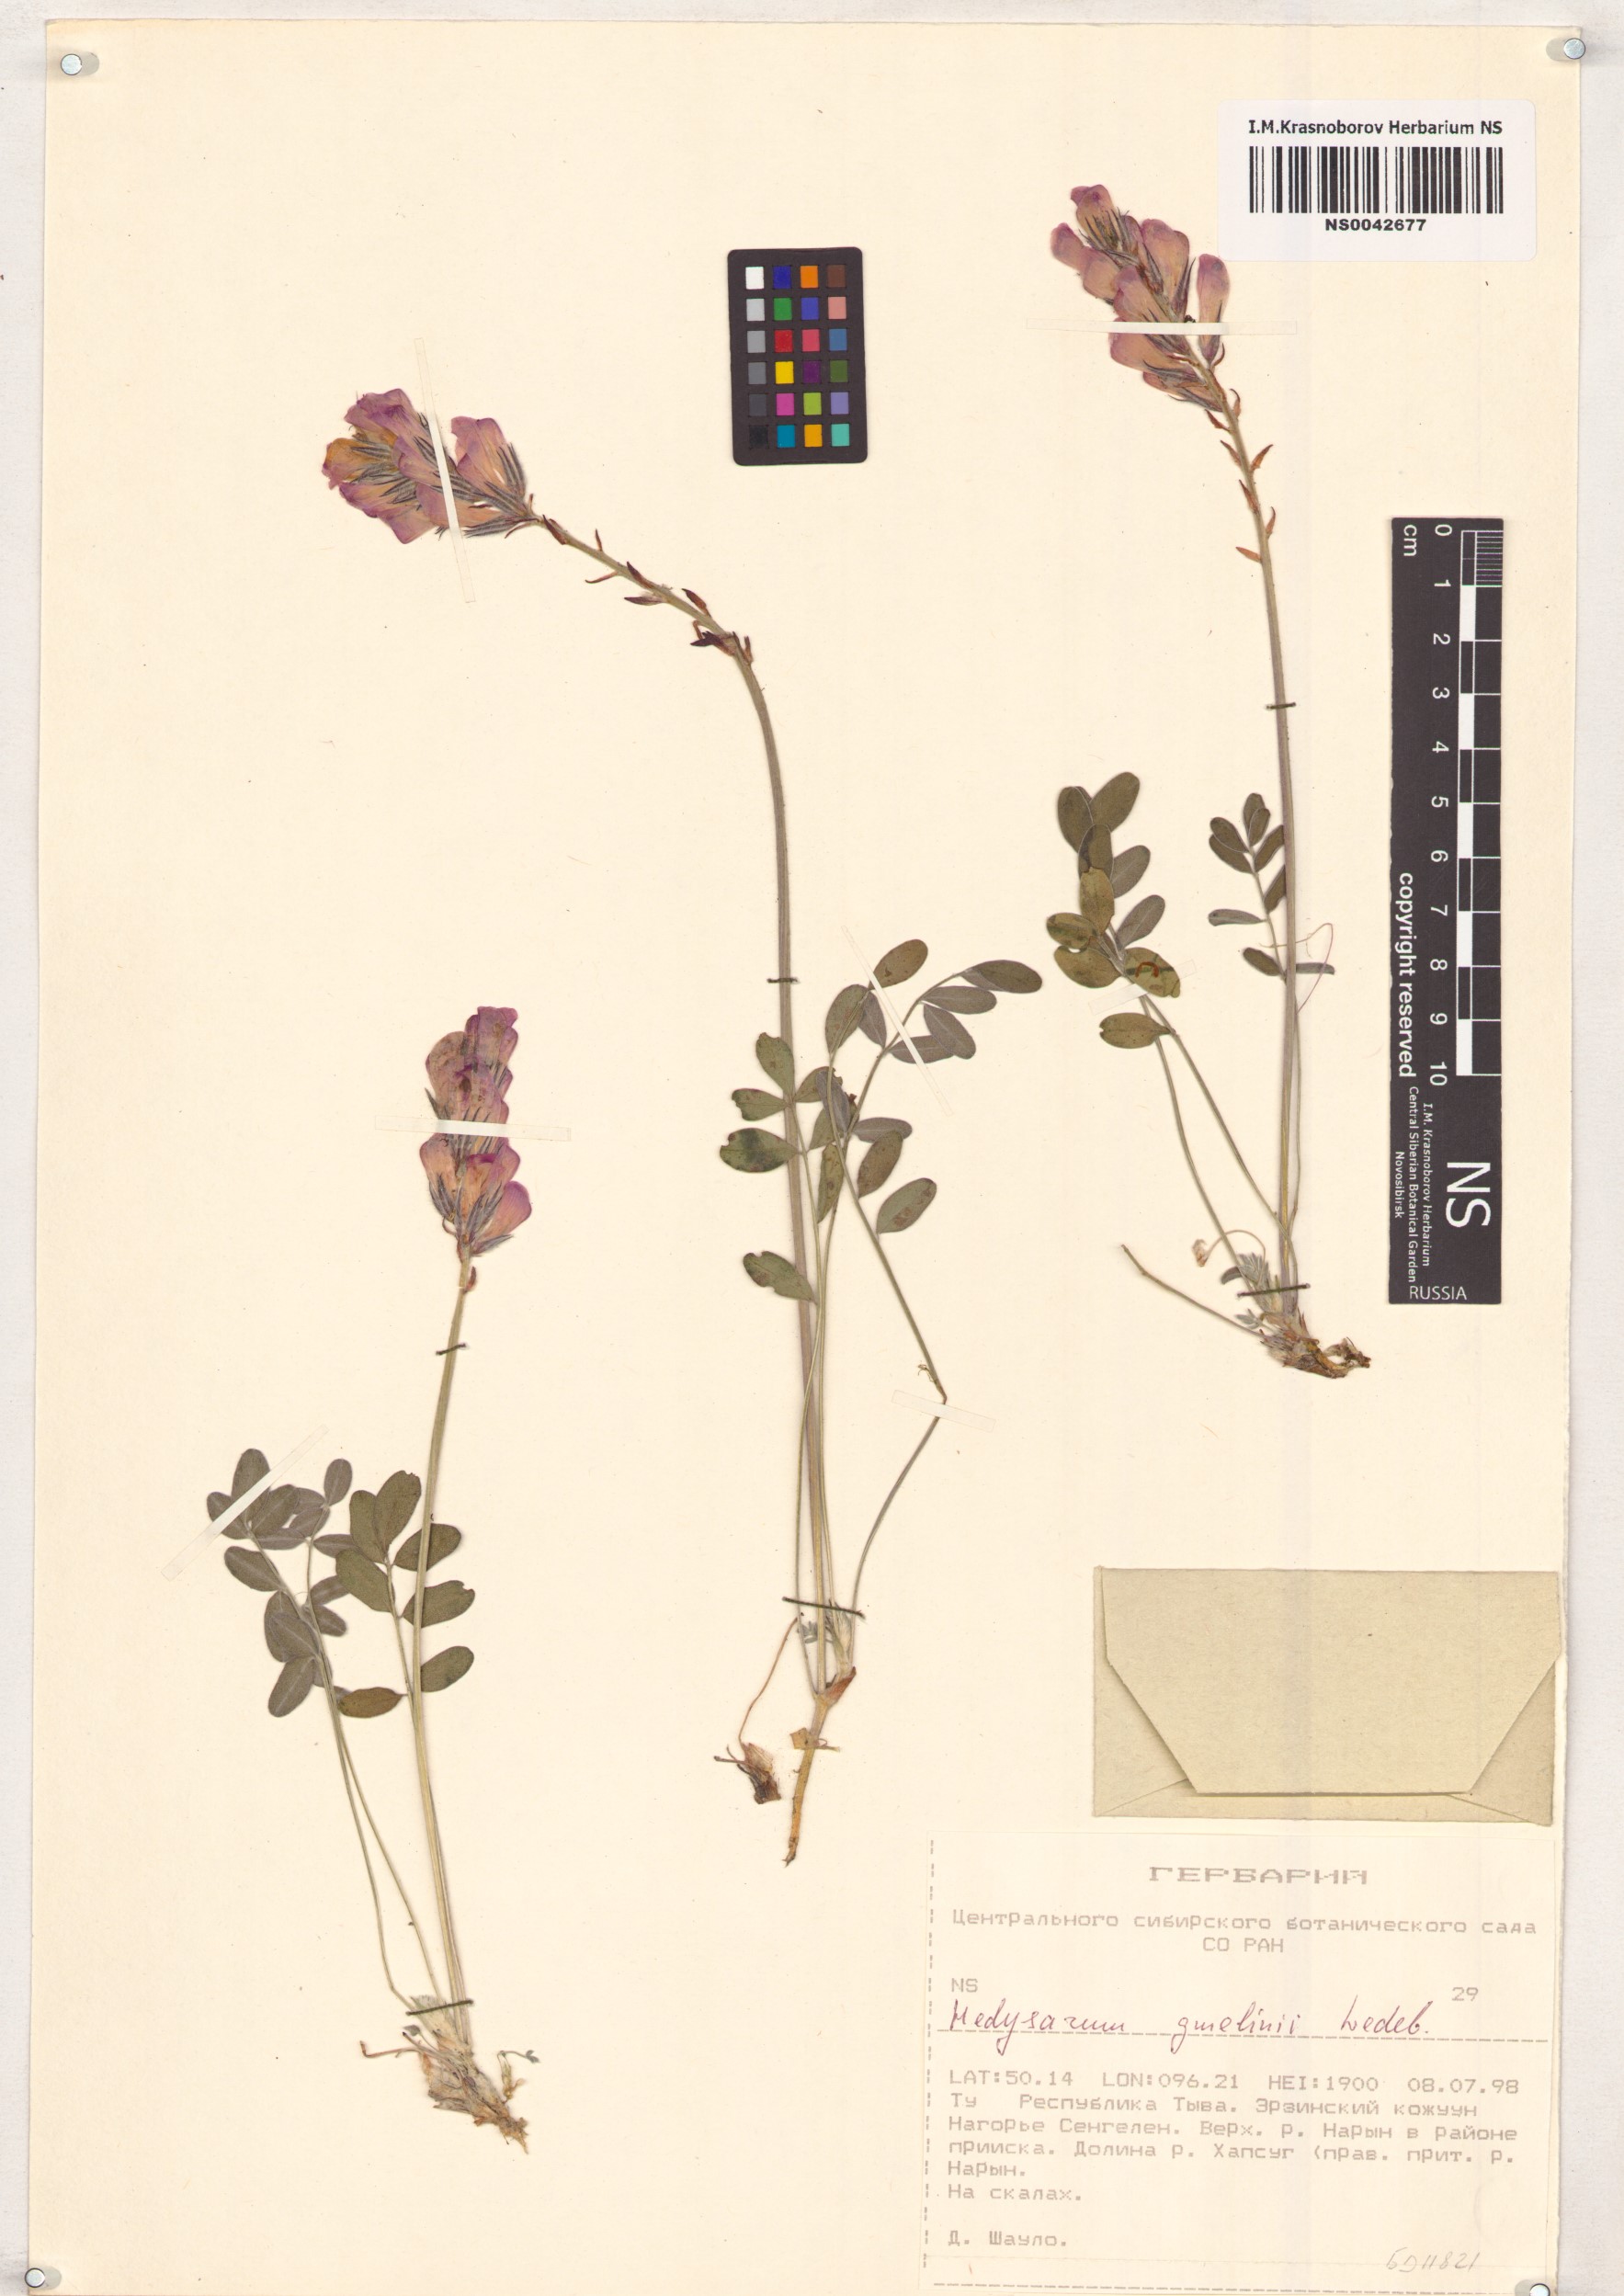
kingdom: Plantae
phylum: Tracheophyta
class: Magnoliopsida
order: Fabales
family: Fabaceae
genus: Hedysarum
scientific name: Hedysarum gmelinii
